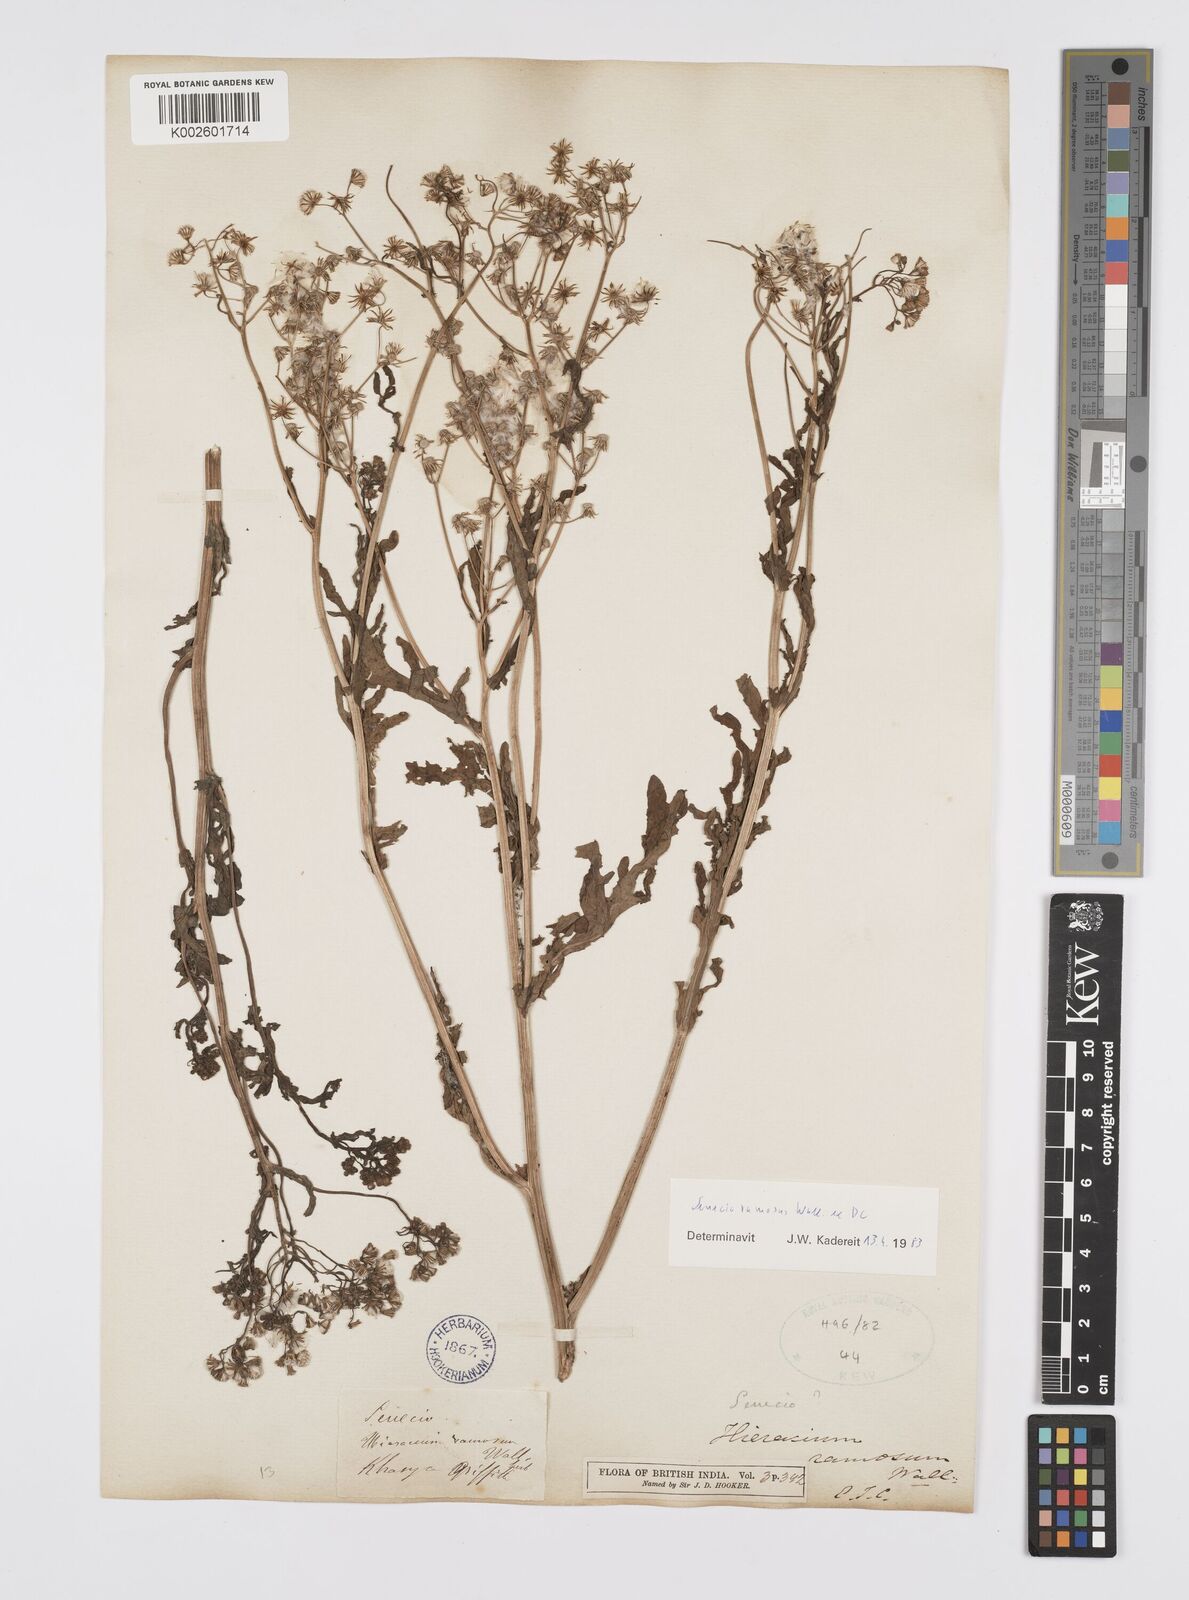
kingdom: Plantae
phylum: Tracheophyta
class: Magnoliopsida
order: Asterales
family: Asteraceae
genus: Senecio
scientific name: Senecio ramosus
